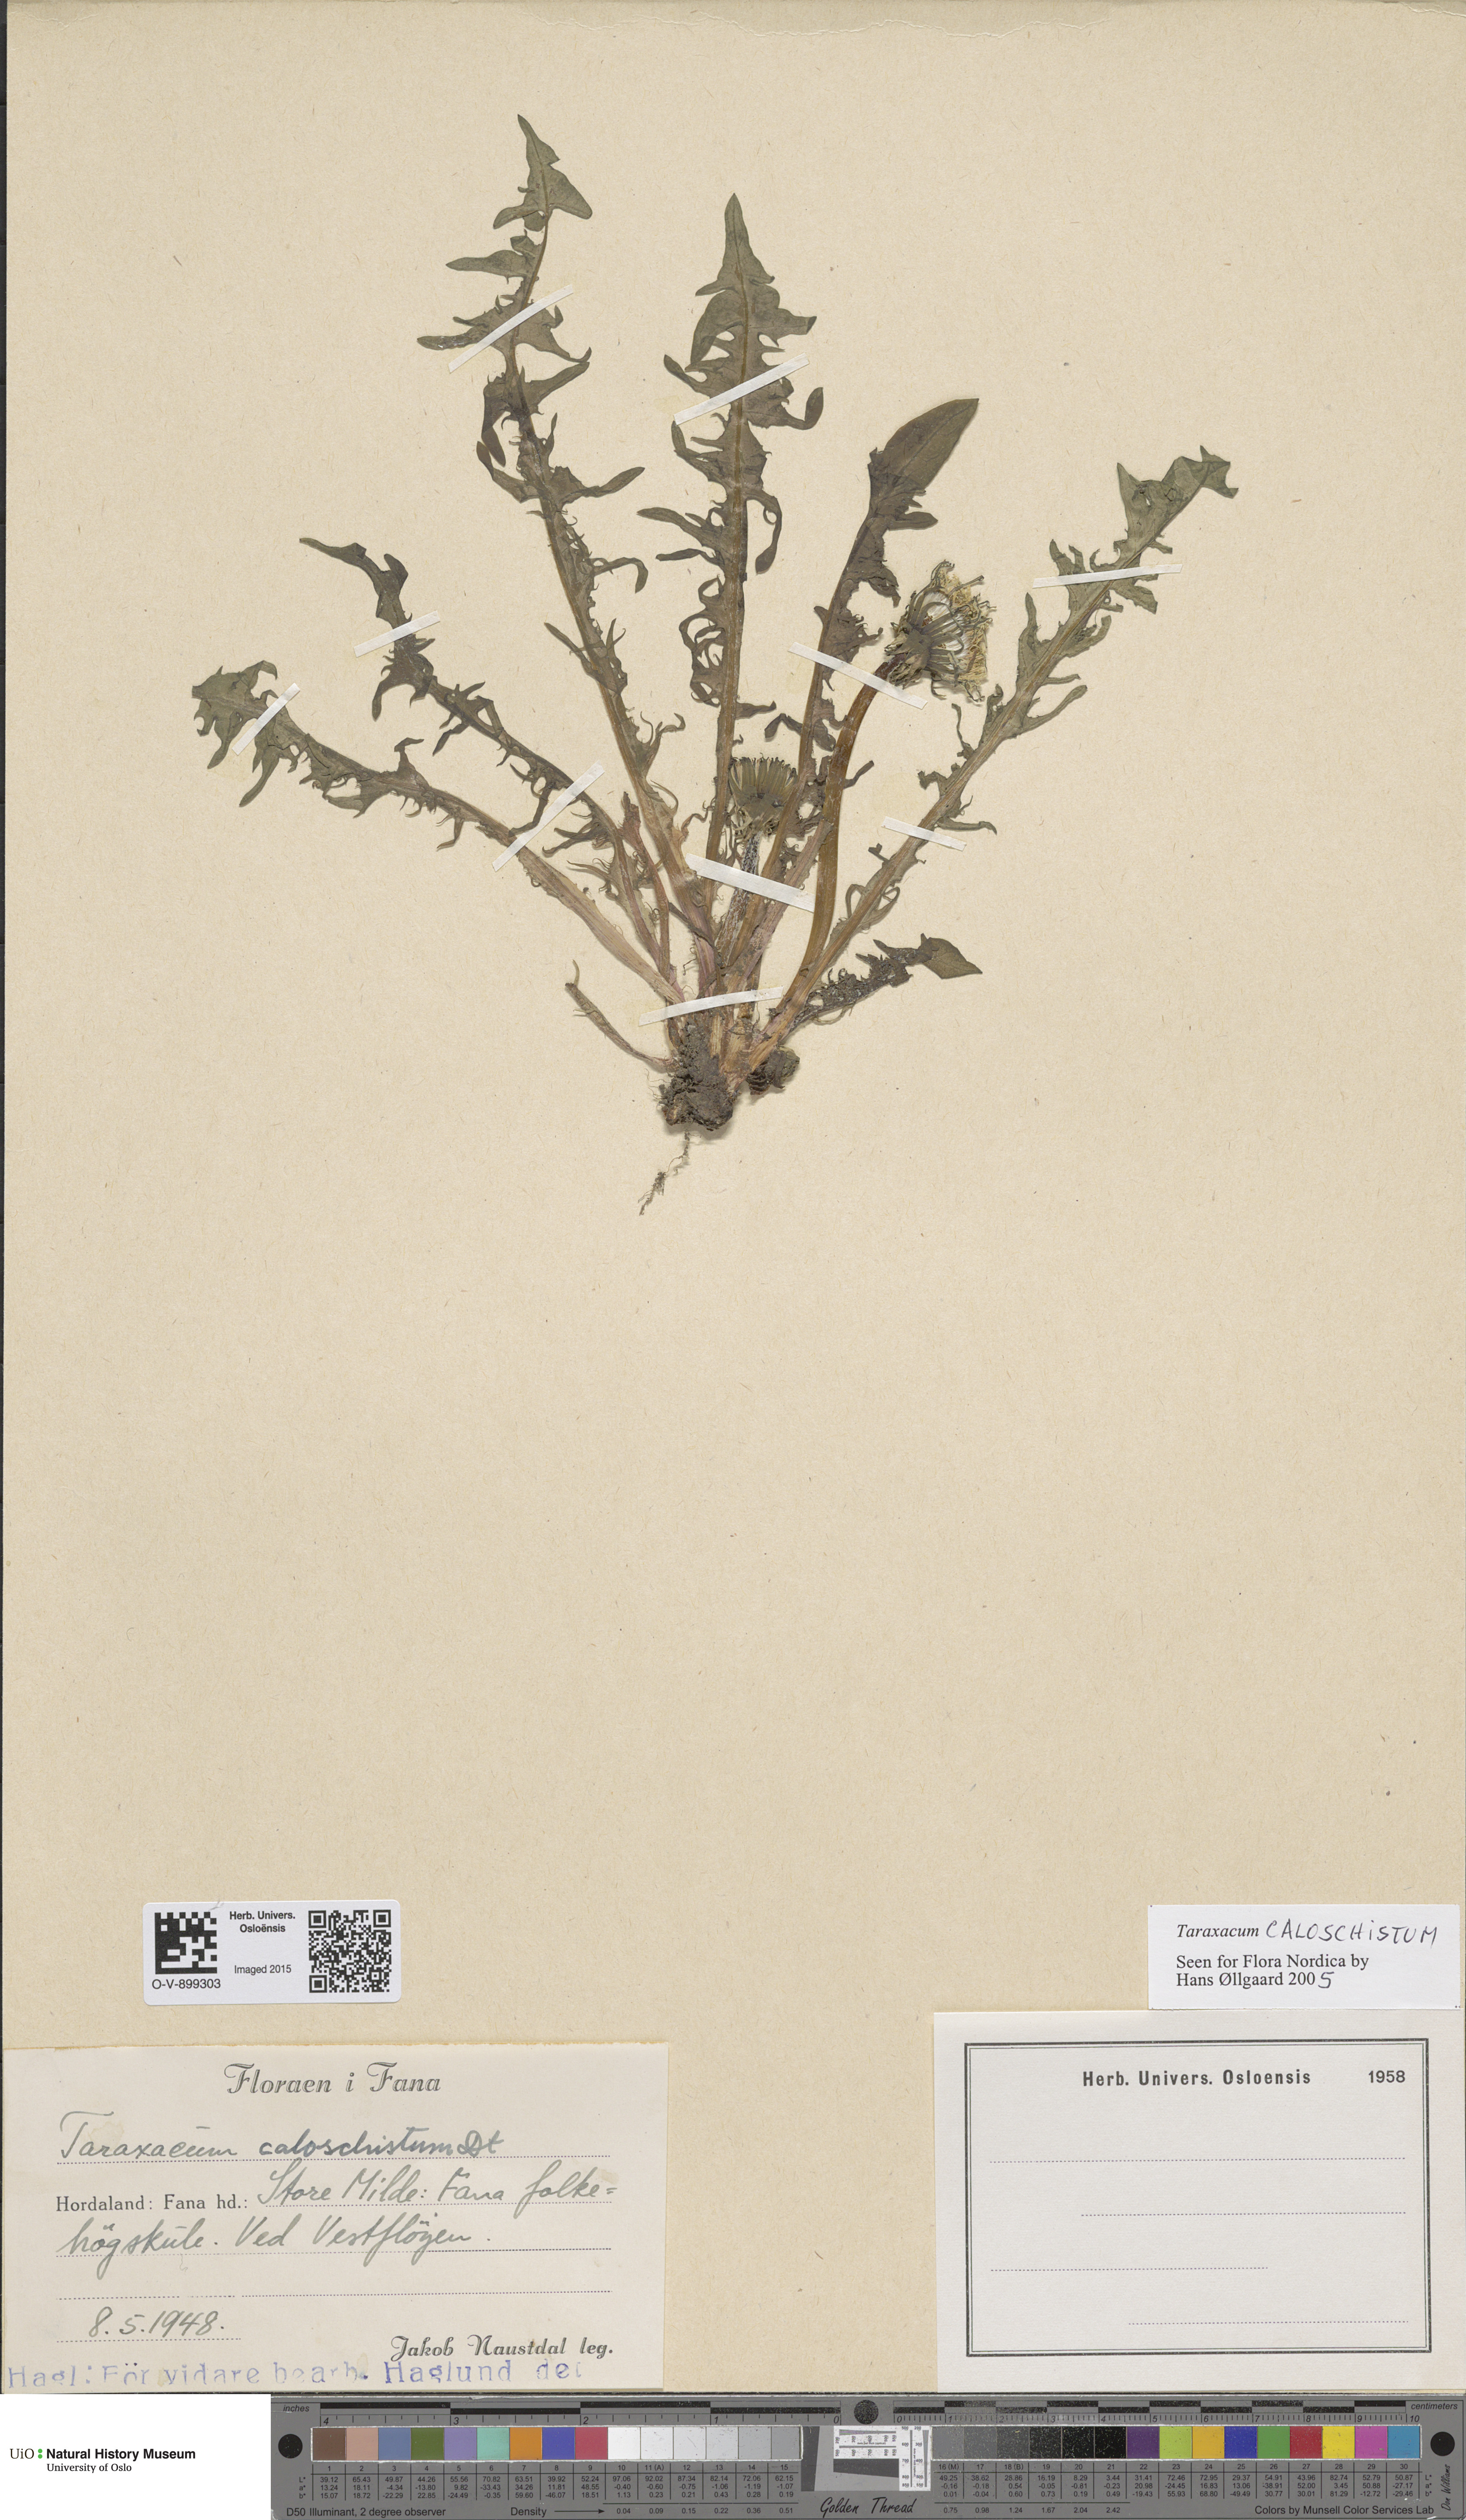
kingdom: Plantae
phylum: Tracheophyta
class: Magnoliopsida
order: Asterales
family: Asteraceae
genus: Taraxacum
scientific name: Taraxacum caloschistum
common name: Brilliant-stalked dandelion
